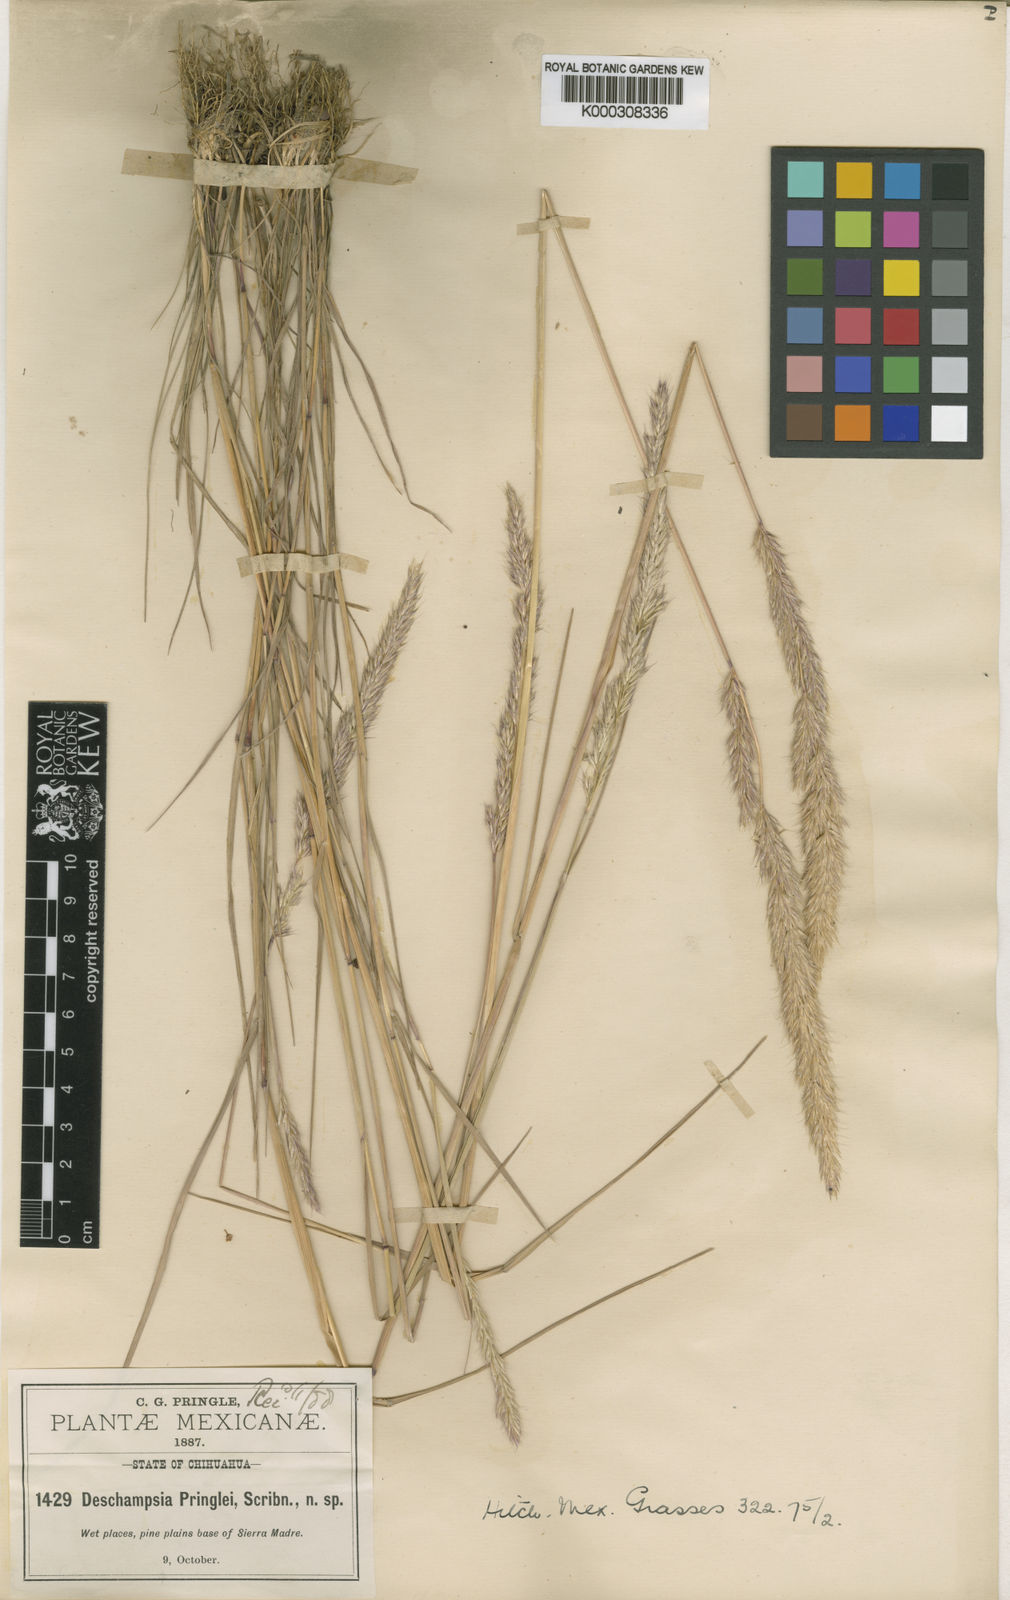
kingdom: Plantae
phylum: Tracheophyta
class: Liliopsida
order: Poales
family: Poaceae
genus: Peyritschia
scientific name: Peyritschia pringlei
